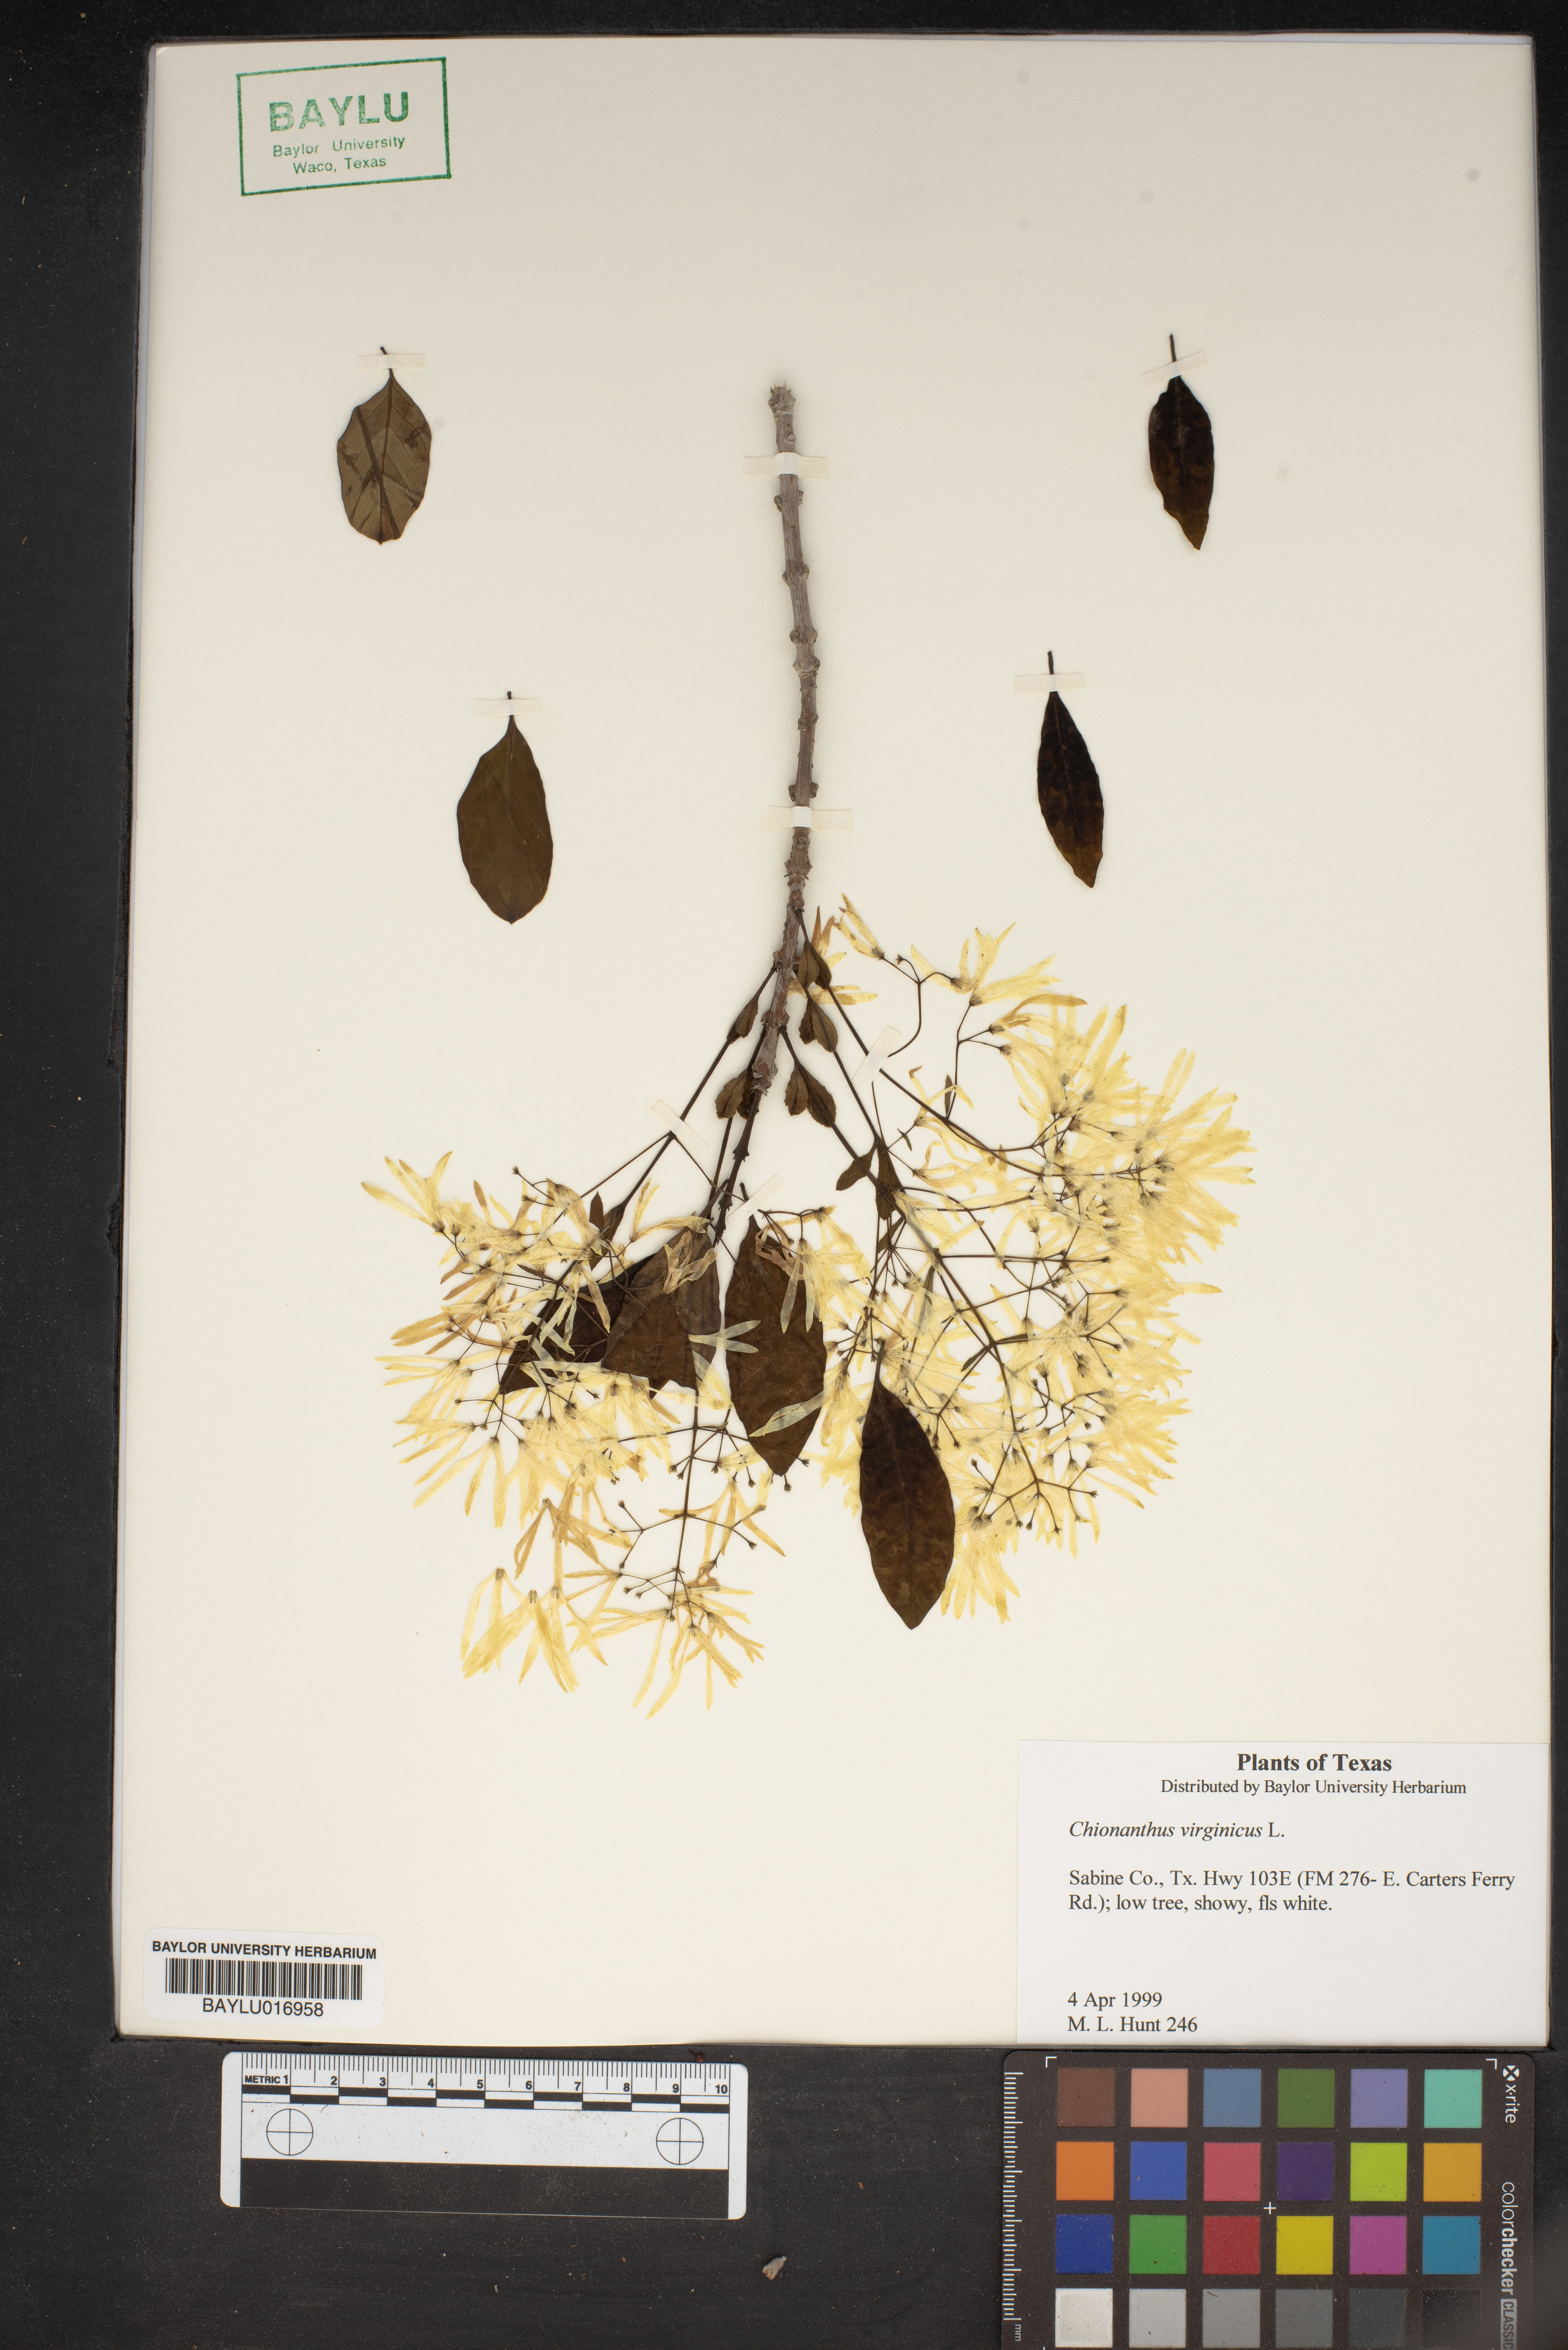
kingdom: Plantae
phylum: Tracheophyta
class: Magnoliopsida
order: Lamiales
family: Oleaceae
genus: Chionanthus
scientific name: Chionanthus virginicus
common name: American fringetree
